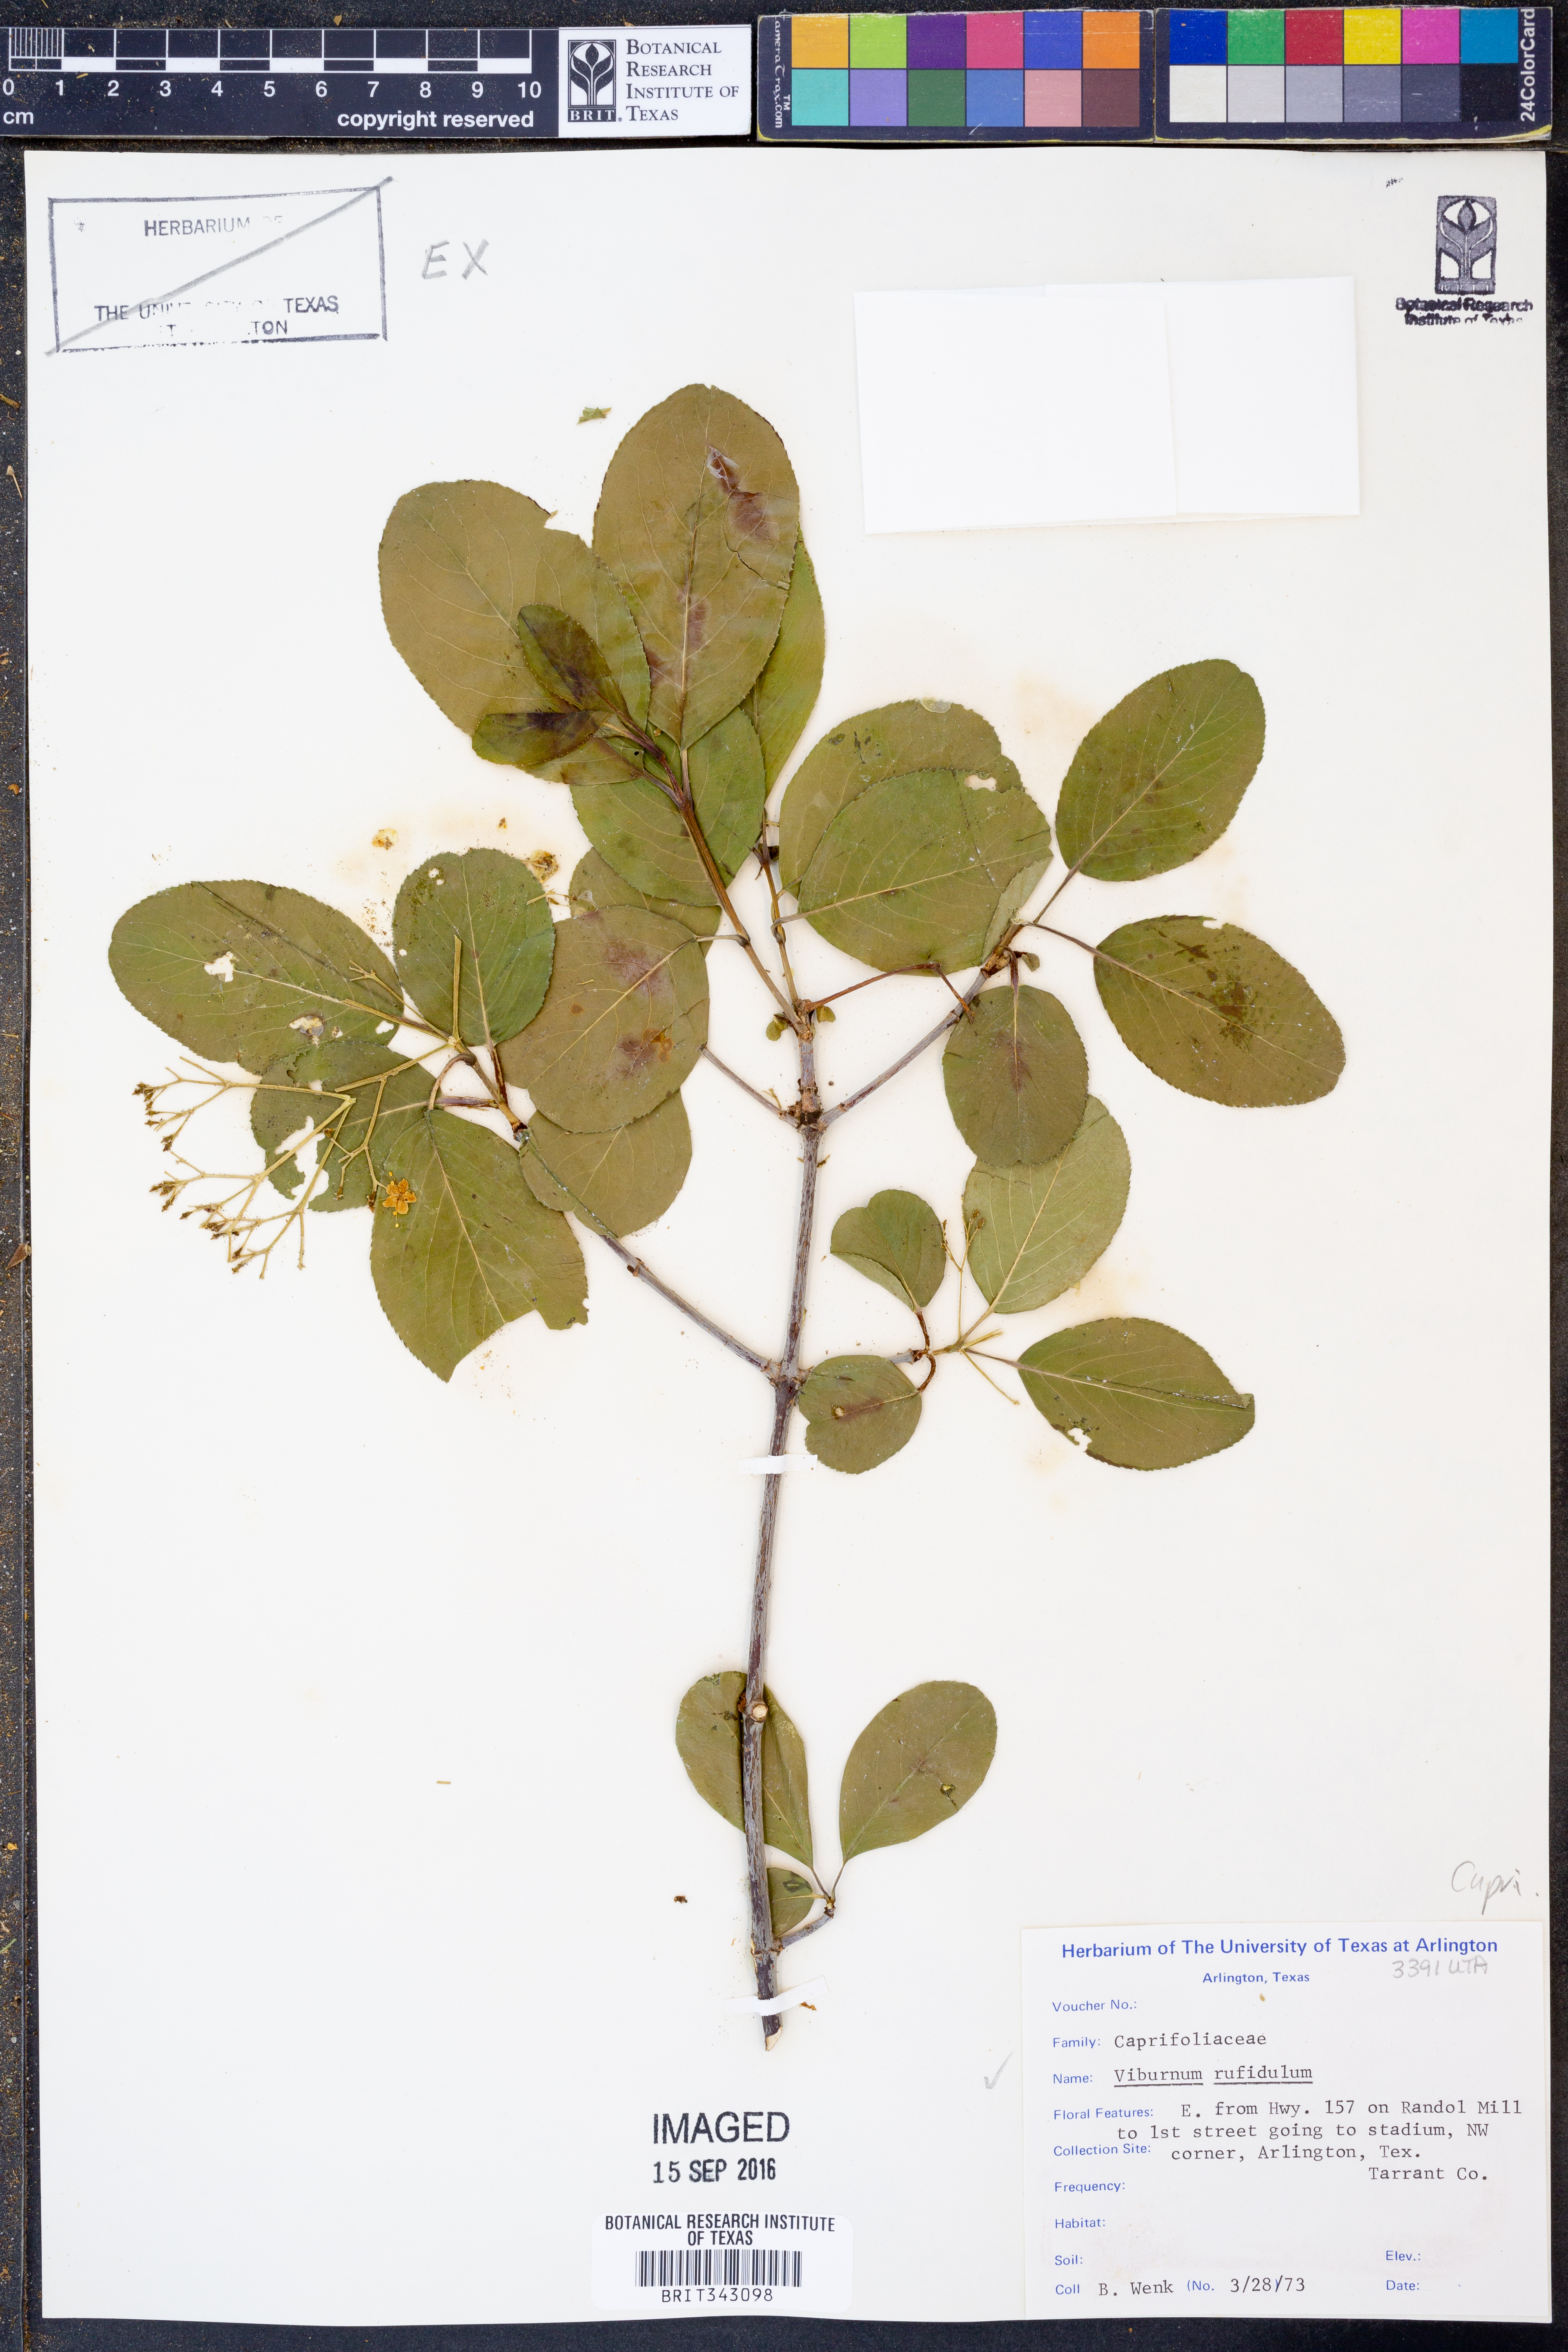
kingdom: Plantae
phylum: Tracheophyta
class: Magnoliopsida
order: Dipsacales
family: Viburnaceae
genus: Viburnum
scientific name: Viburnum rufidulum
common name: Blue haw
